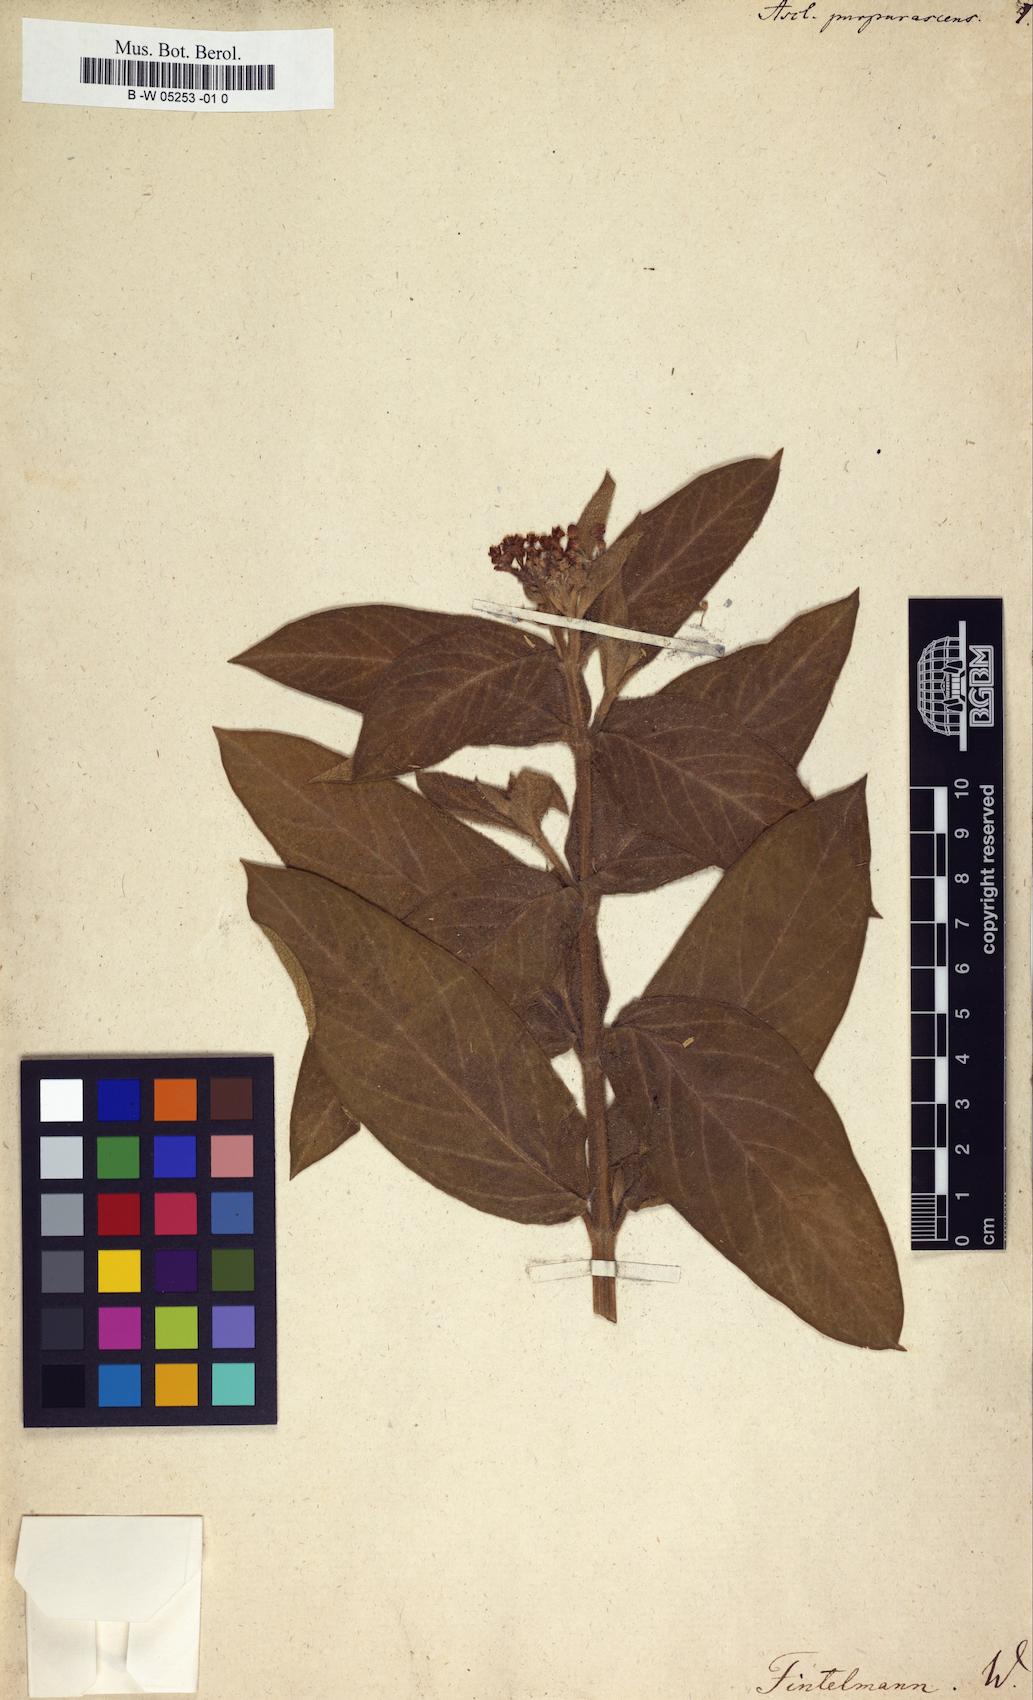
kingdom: Plantae
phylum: Tracheophyta
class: Magnoliopsida
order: Gentianales
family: Apocynaceae
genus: Asclepias
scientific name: Asclepias purpurascens
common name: Purple milkweed
